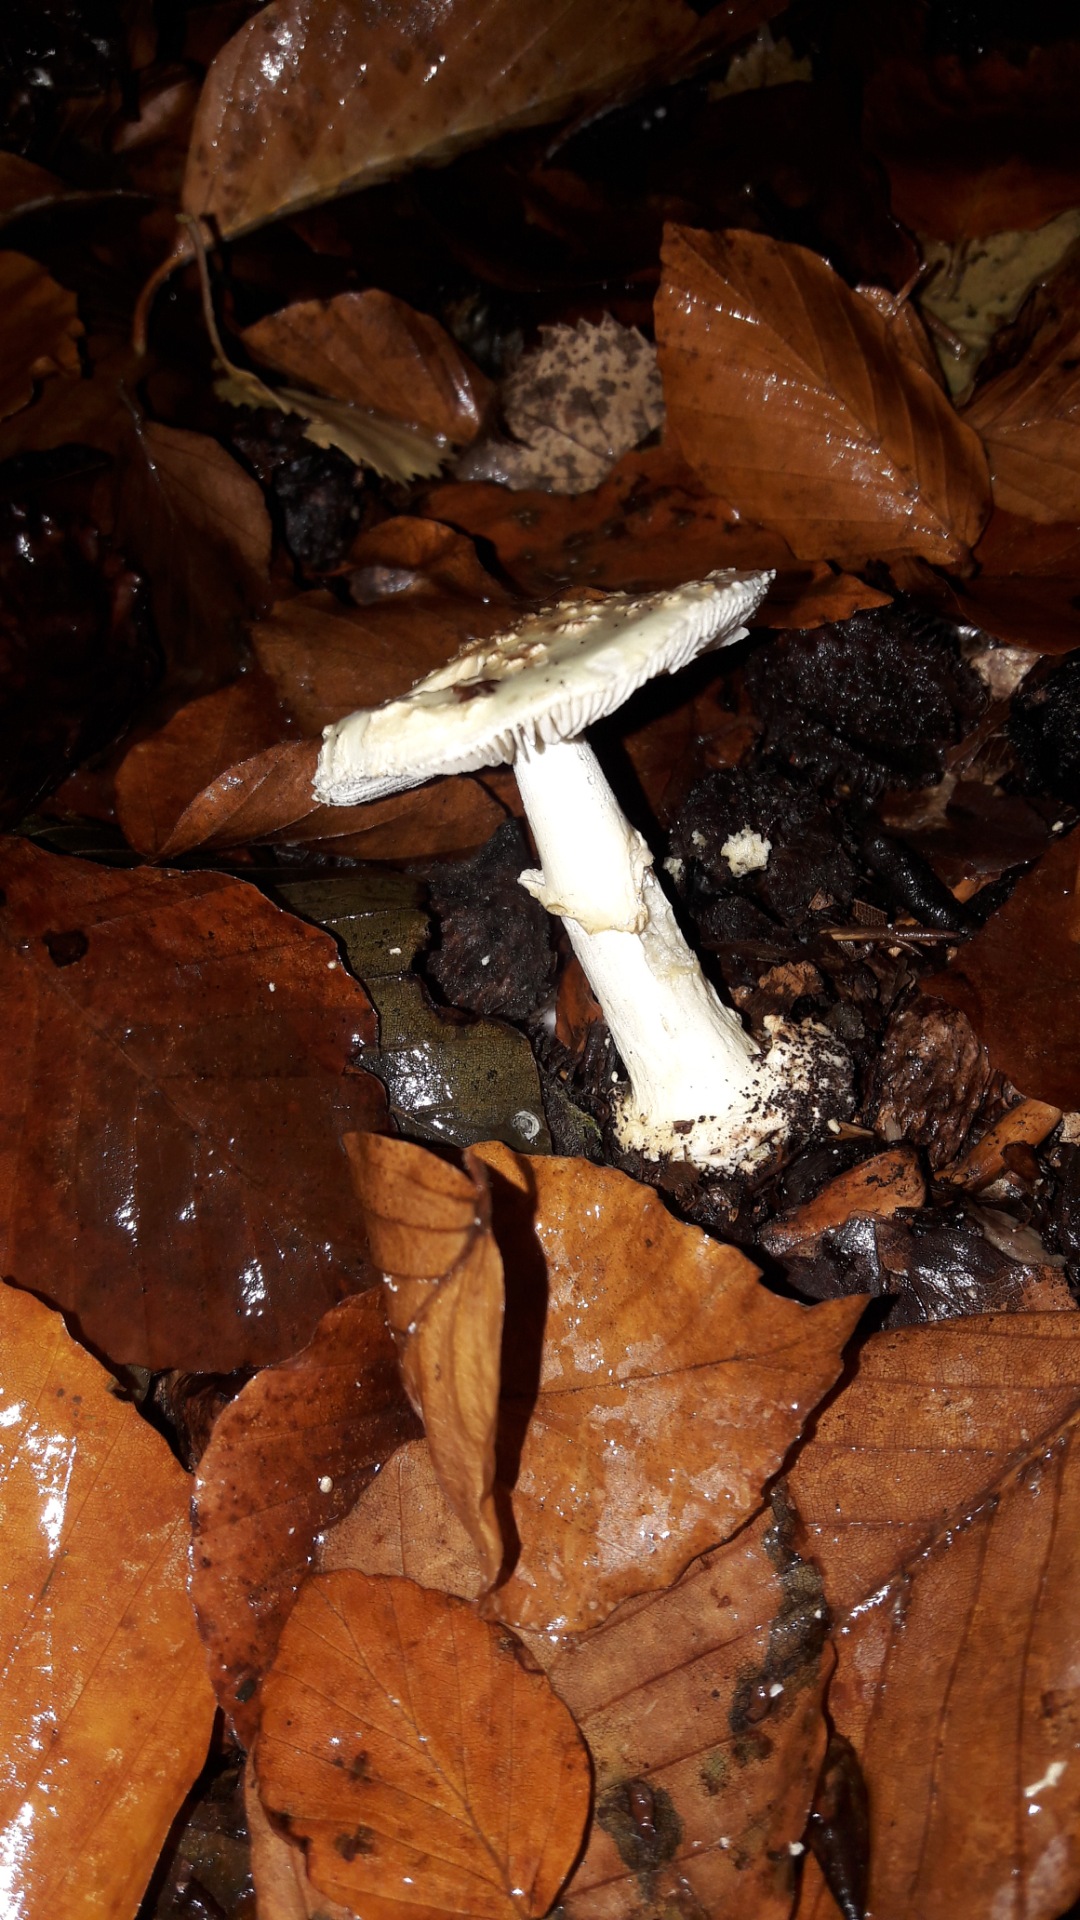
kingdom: Fungi
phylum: Basidiomycota
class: Agaricomycetes
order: Agaricales
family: Amanitaceae
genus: Amanita
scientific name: Amanita citrina
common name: kugleknoldet fluesvamp
